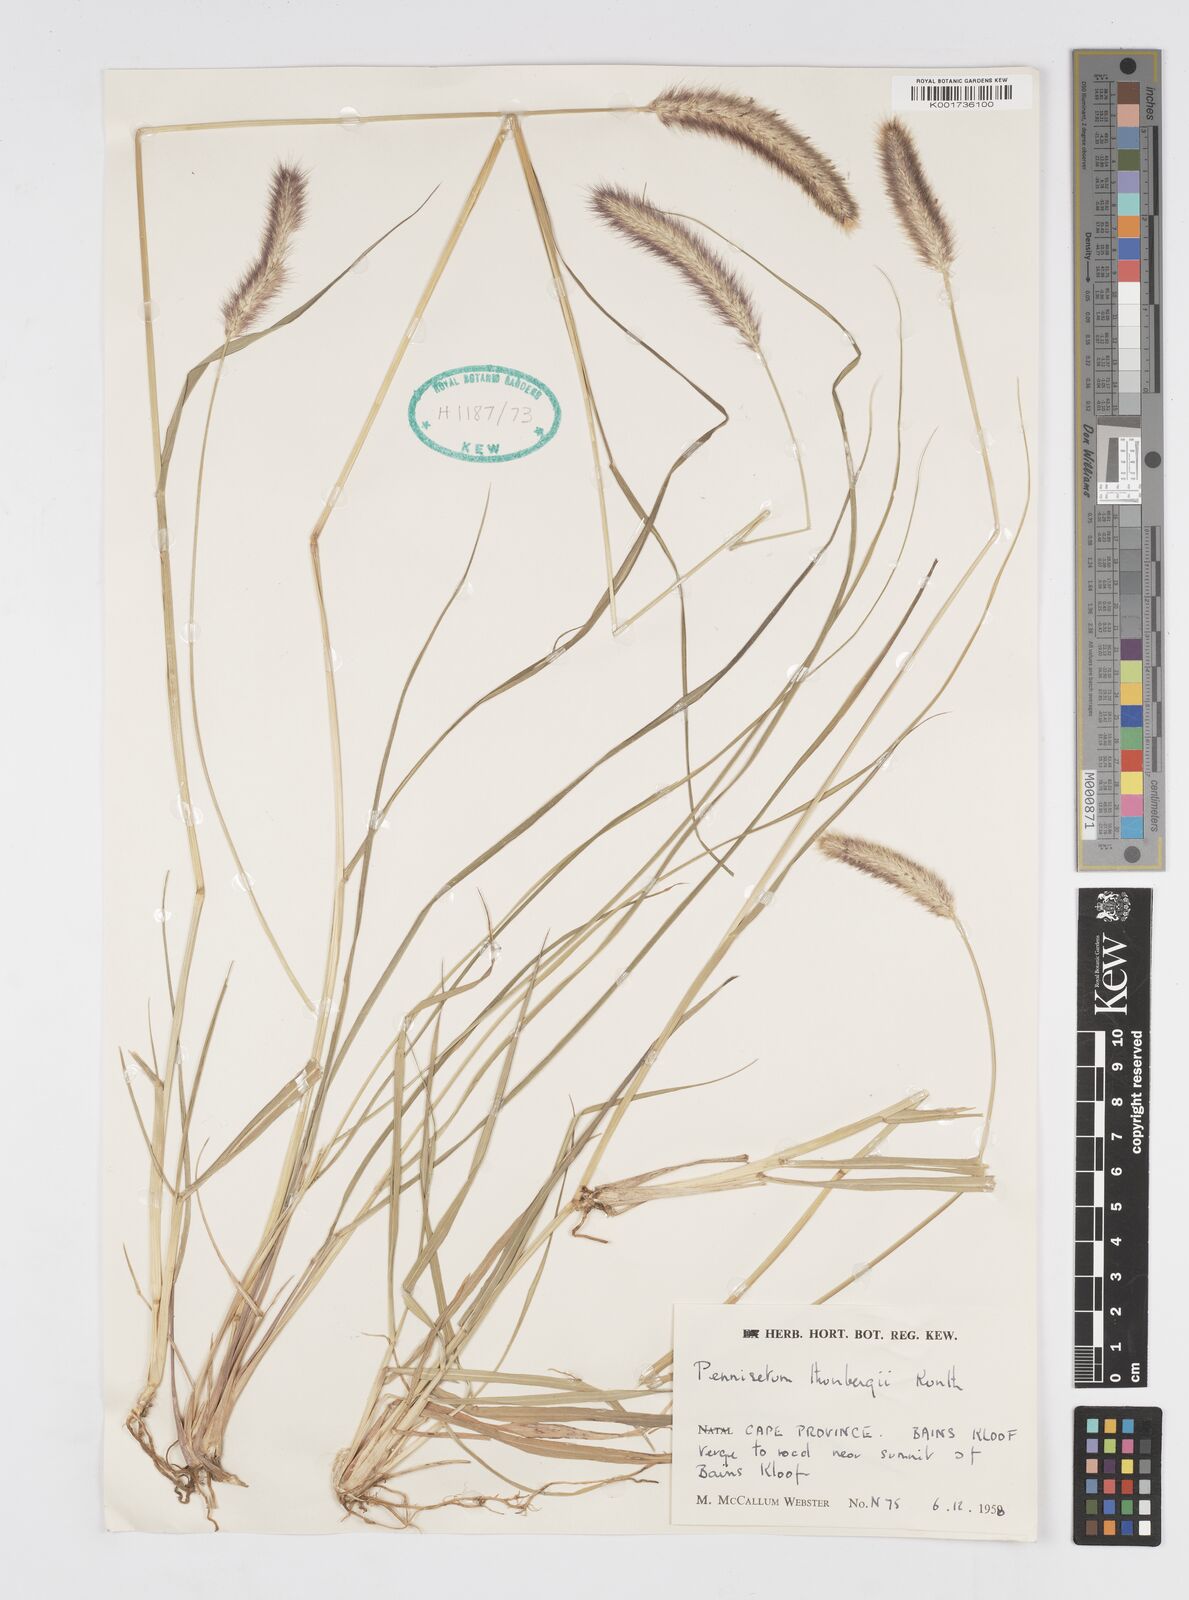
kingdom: Plantae
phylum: Tracheophyta
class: Liliopsida
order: Poales
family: Poaceae
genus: Cenchrus
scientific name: Cenchrus geniculatus
